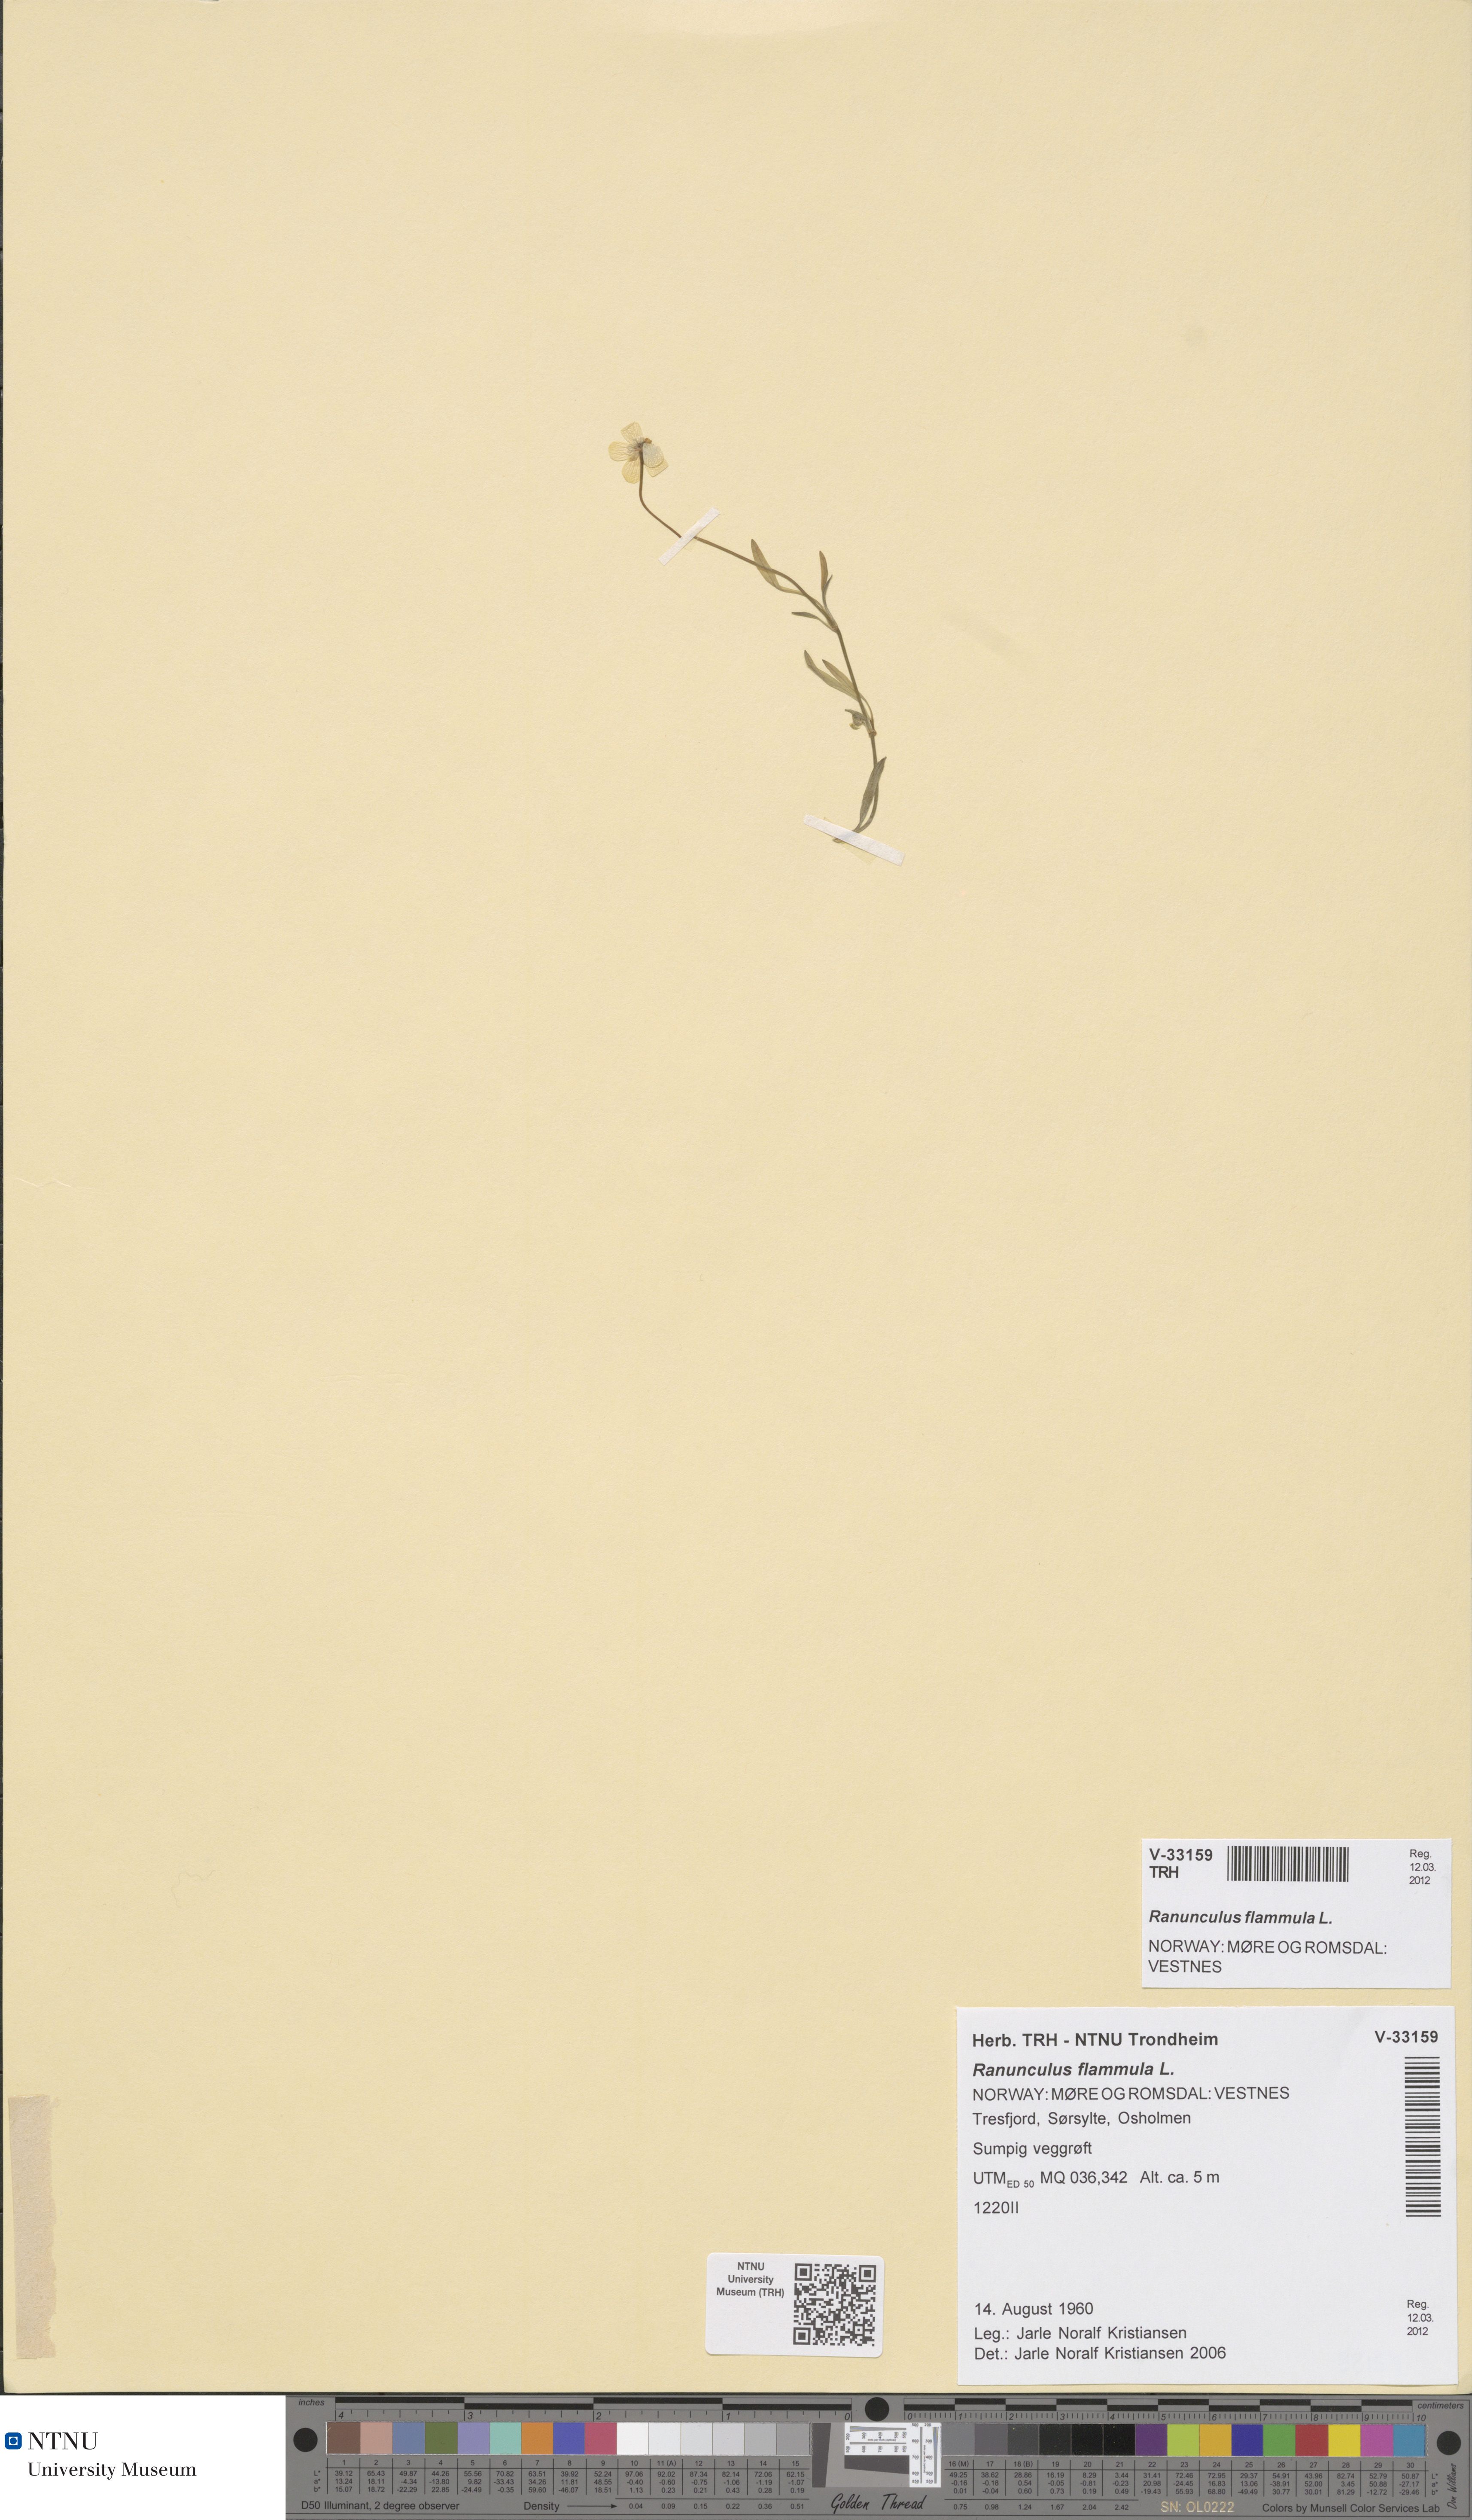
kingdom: Plantae
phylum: Tracheophyta
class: Magnoliopsida
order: Ranunculales
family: Ranunculaceae
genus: Ranunculus
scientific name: Ranunculus flammula
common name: Lesser spearwort
